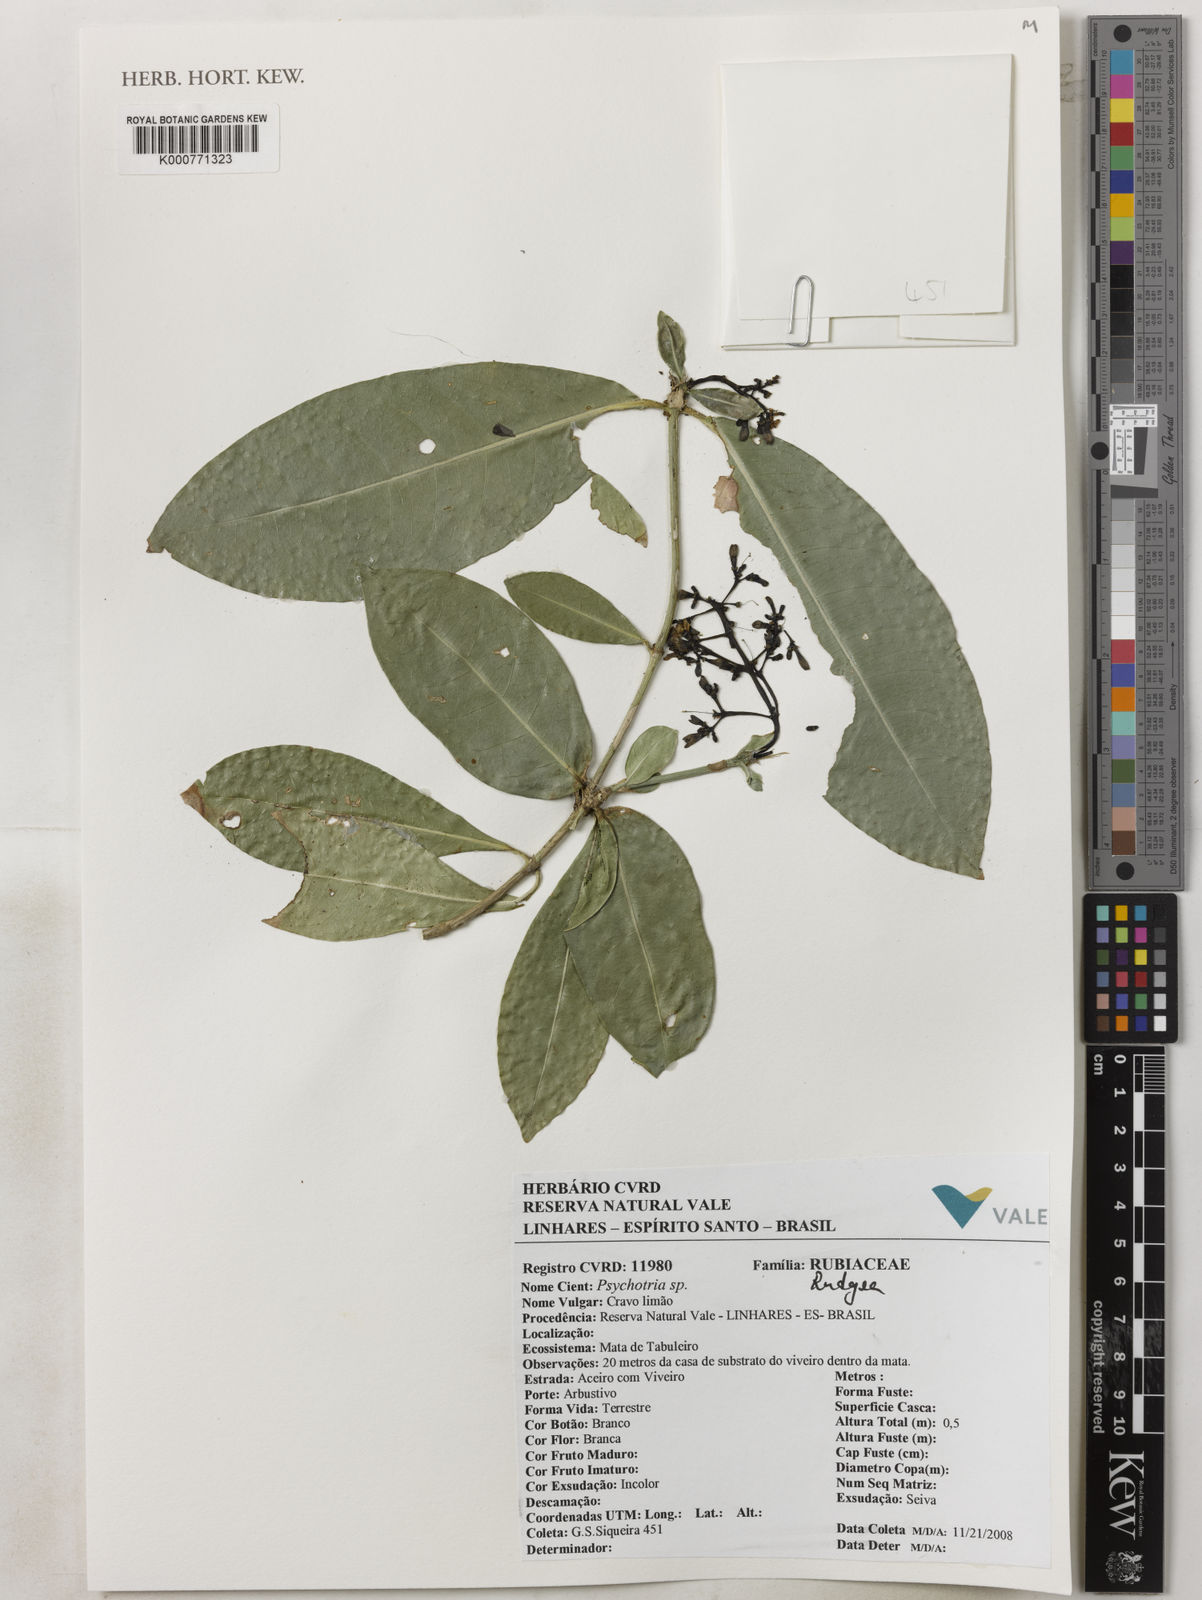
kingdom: Plantae
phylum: Tracheophyta
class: Magnoliopsida
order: Gentianales
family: Rubiaceae
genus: Rudgea
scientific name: Rudgea
